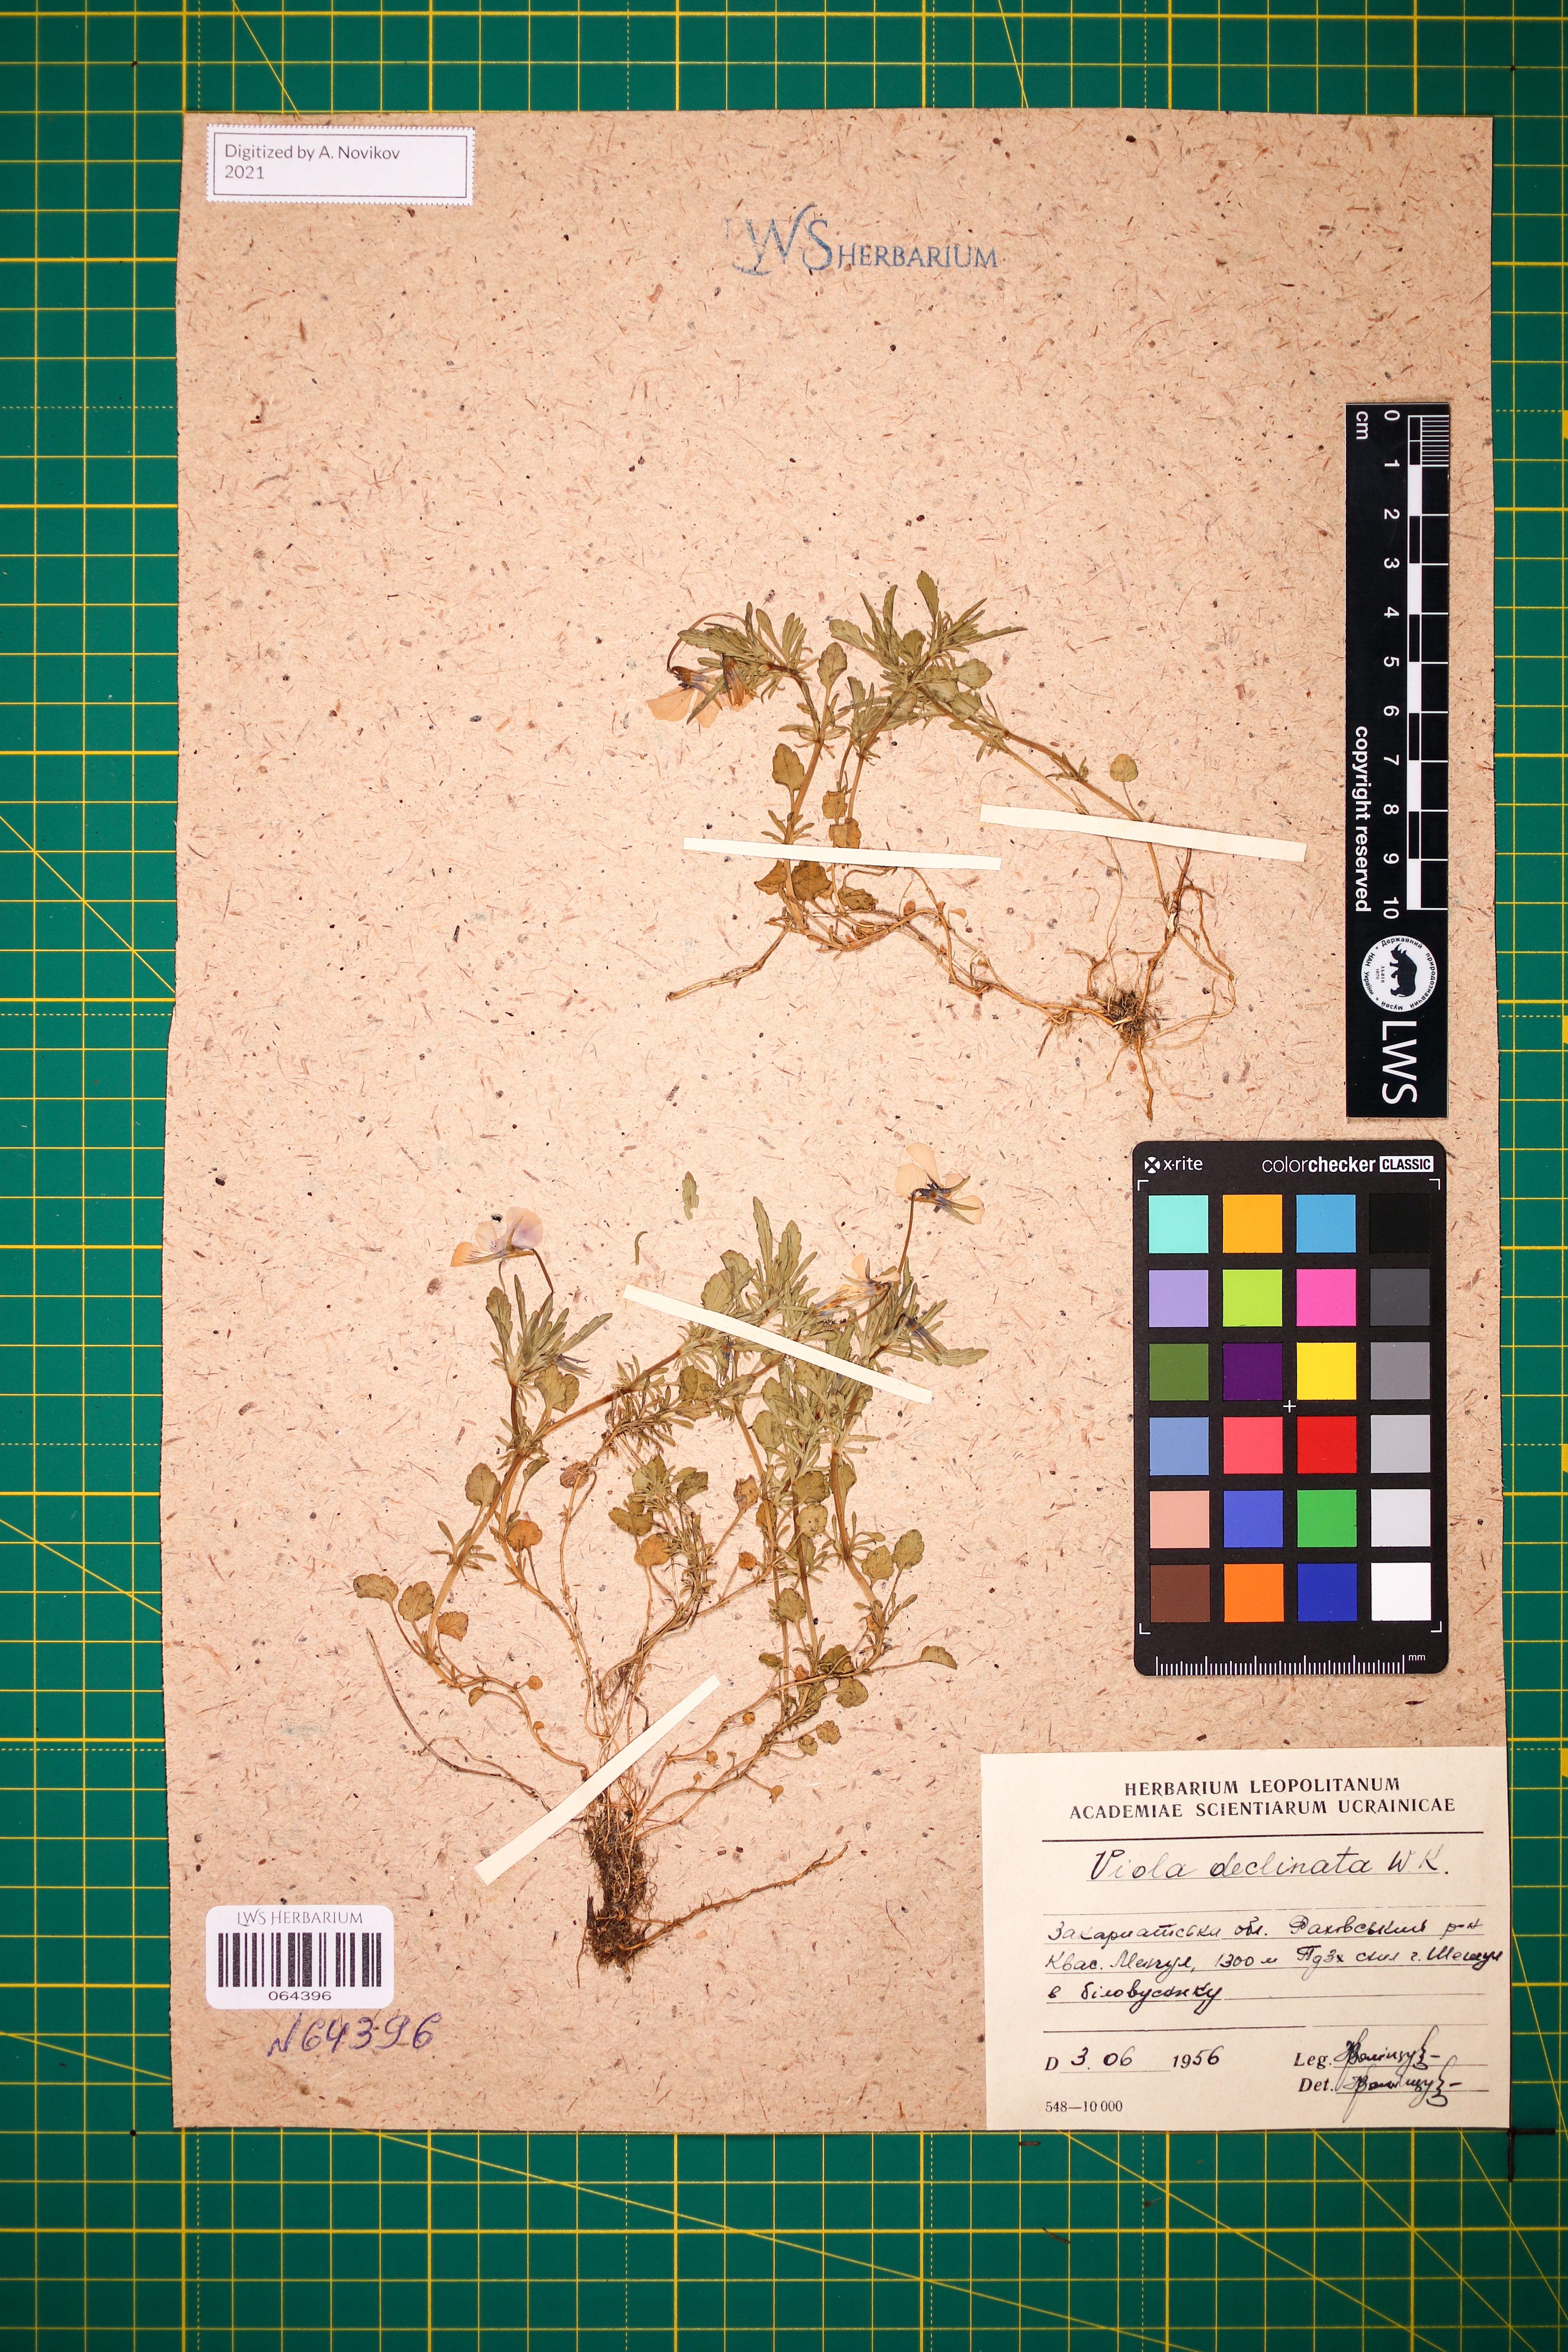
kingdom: Plantae
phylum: Tracheophyta
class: Magnoliopsida
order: Malpighiales
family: Violaceae
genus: Viola
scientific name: Viola declinata
